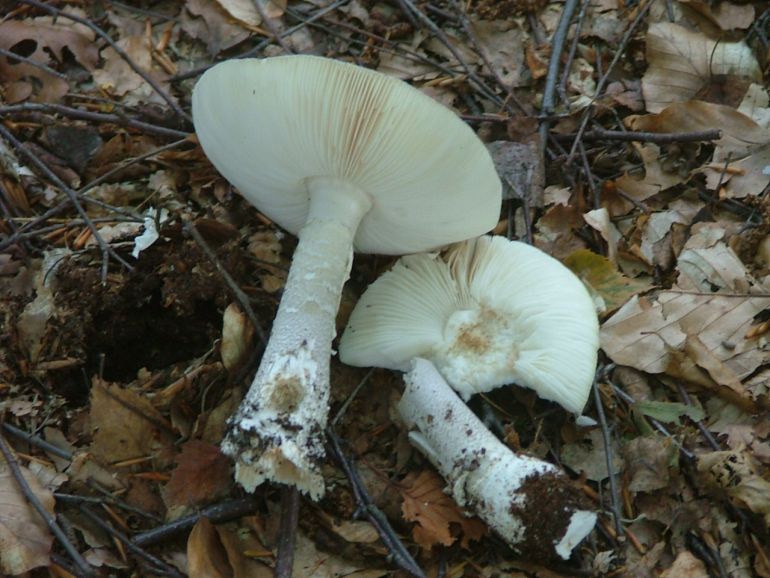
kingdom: Fungi
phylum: Basidiomycota
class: Agaricomycetes
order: Agaricales
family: Amanitaceae
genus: Amanita
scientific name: Amanita
